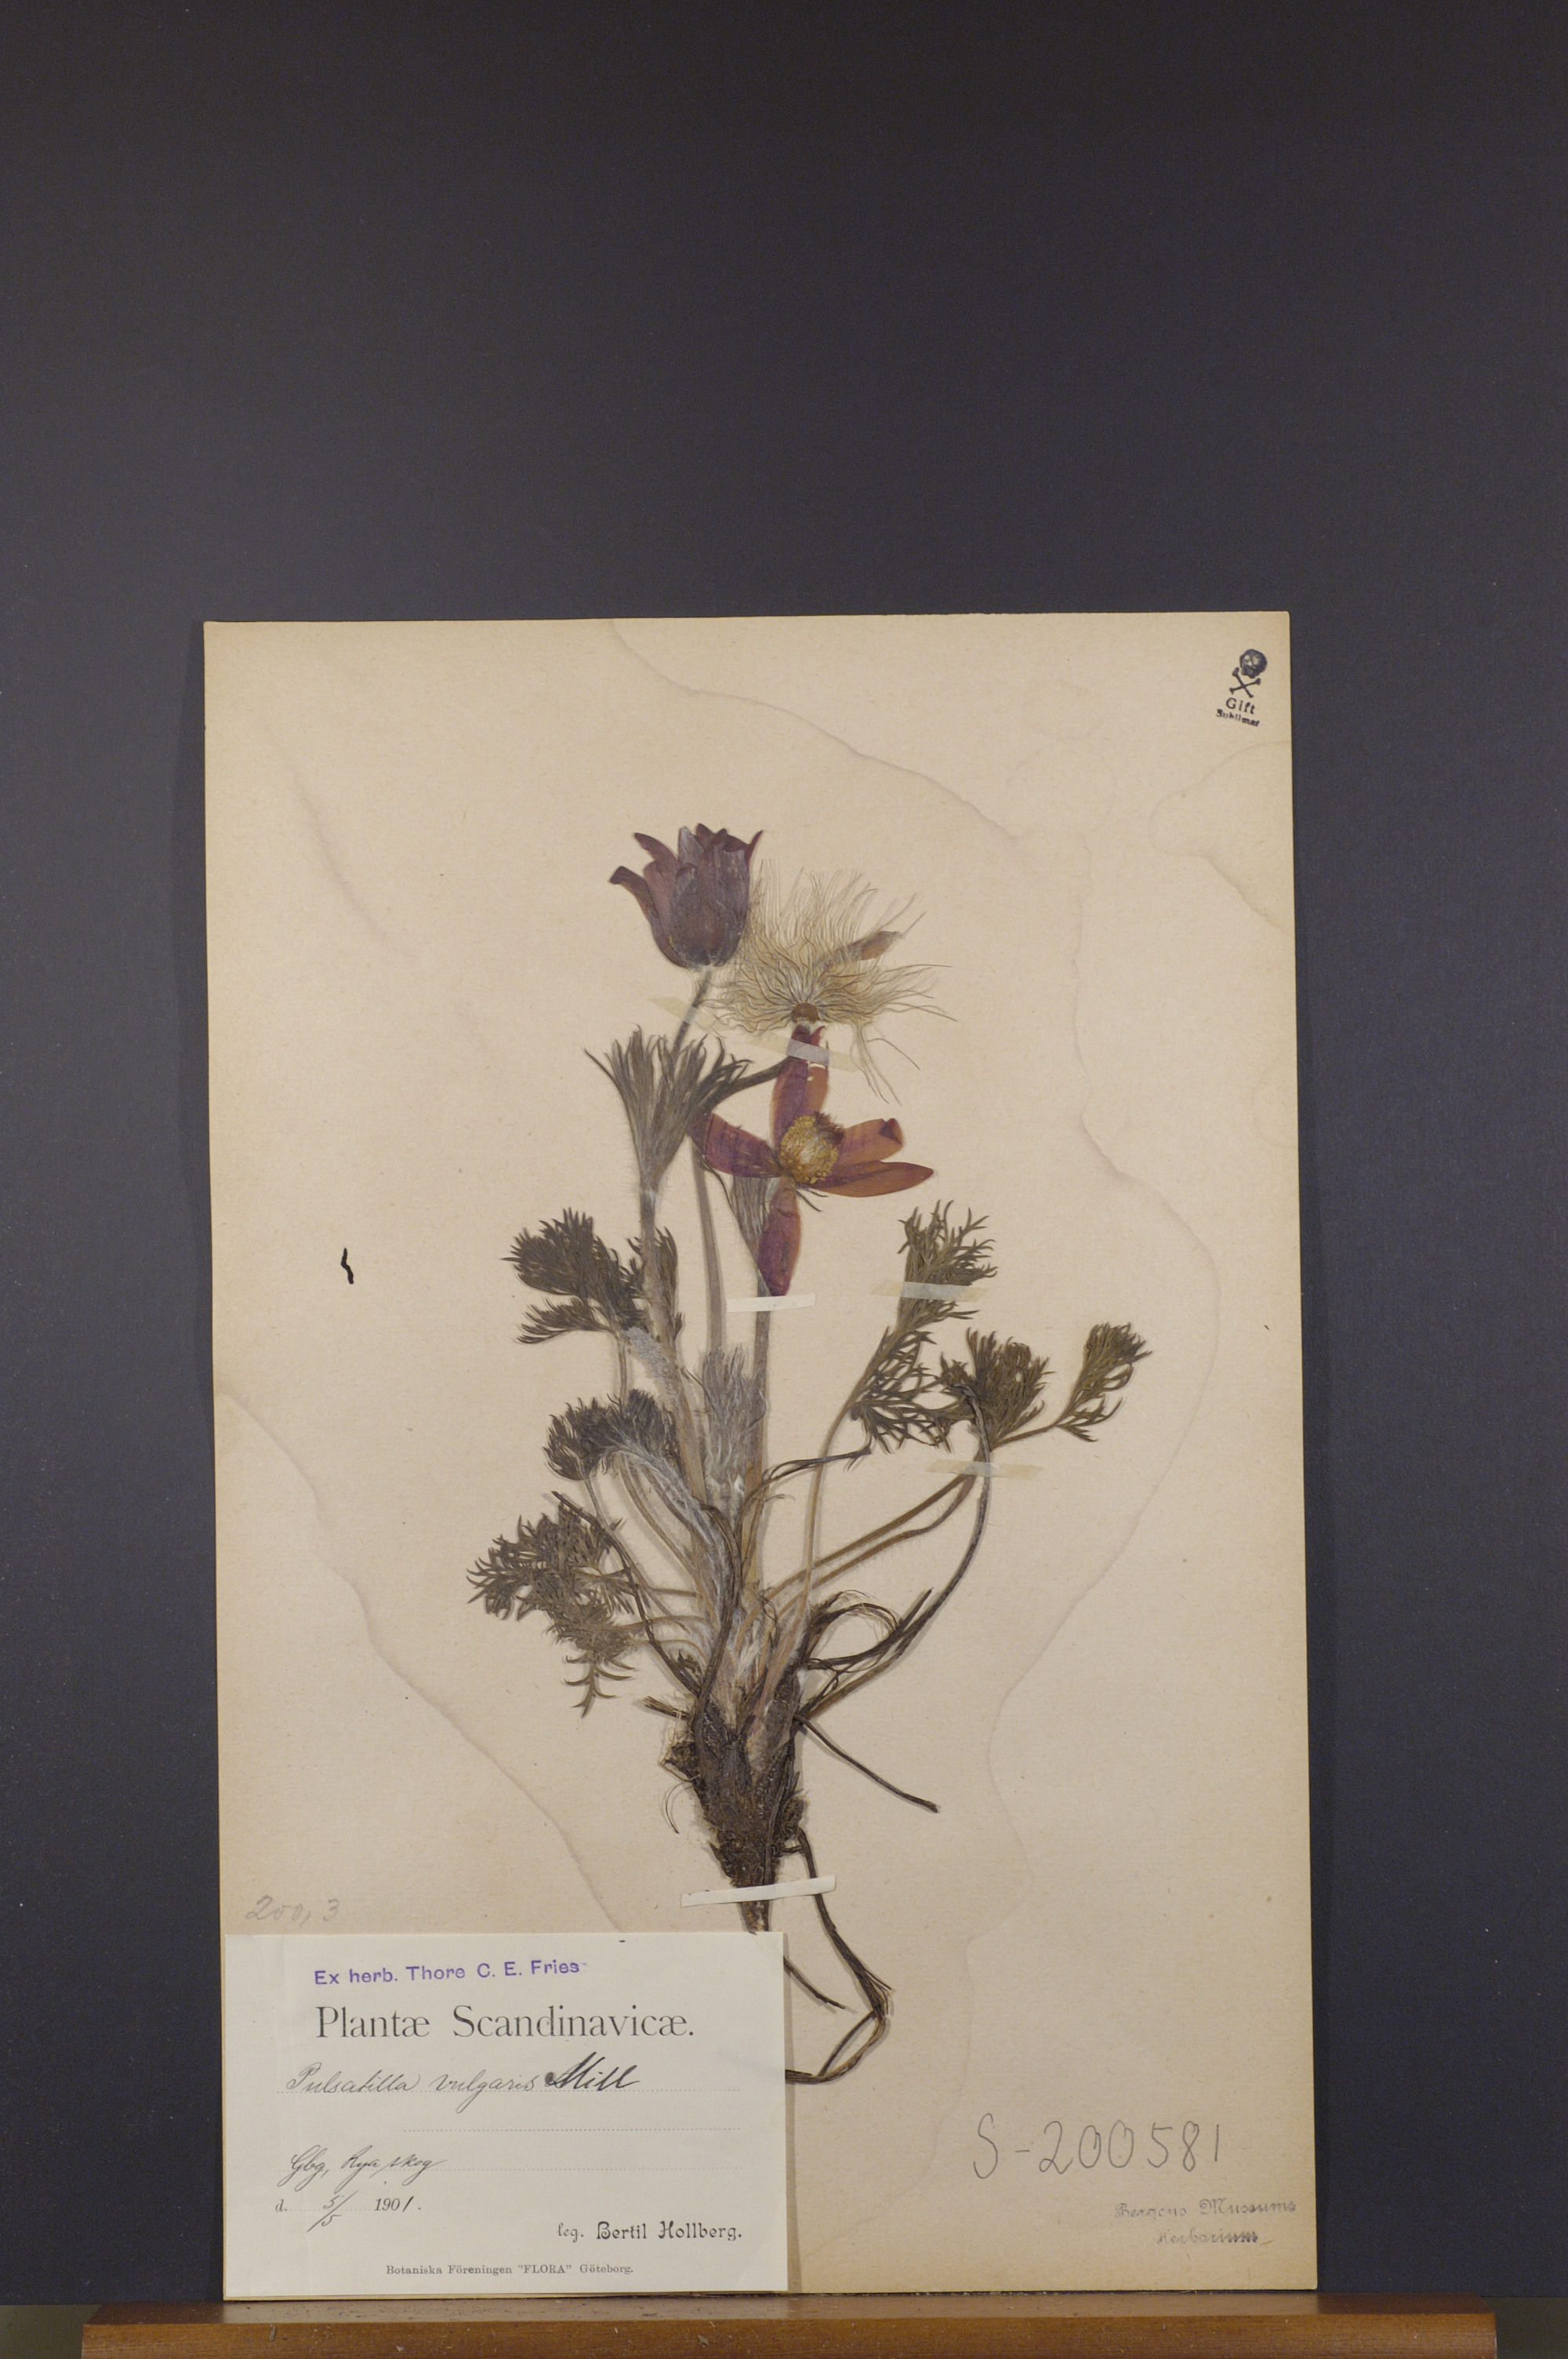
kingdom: Plantae
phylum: Tracheophyta
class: Magnoliopsida
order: Ranunculales
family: Ranunculaceae
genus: Pulsatilla
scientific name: Pulsatilla vulgaris
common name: Pasqueflower
